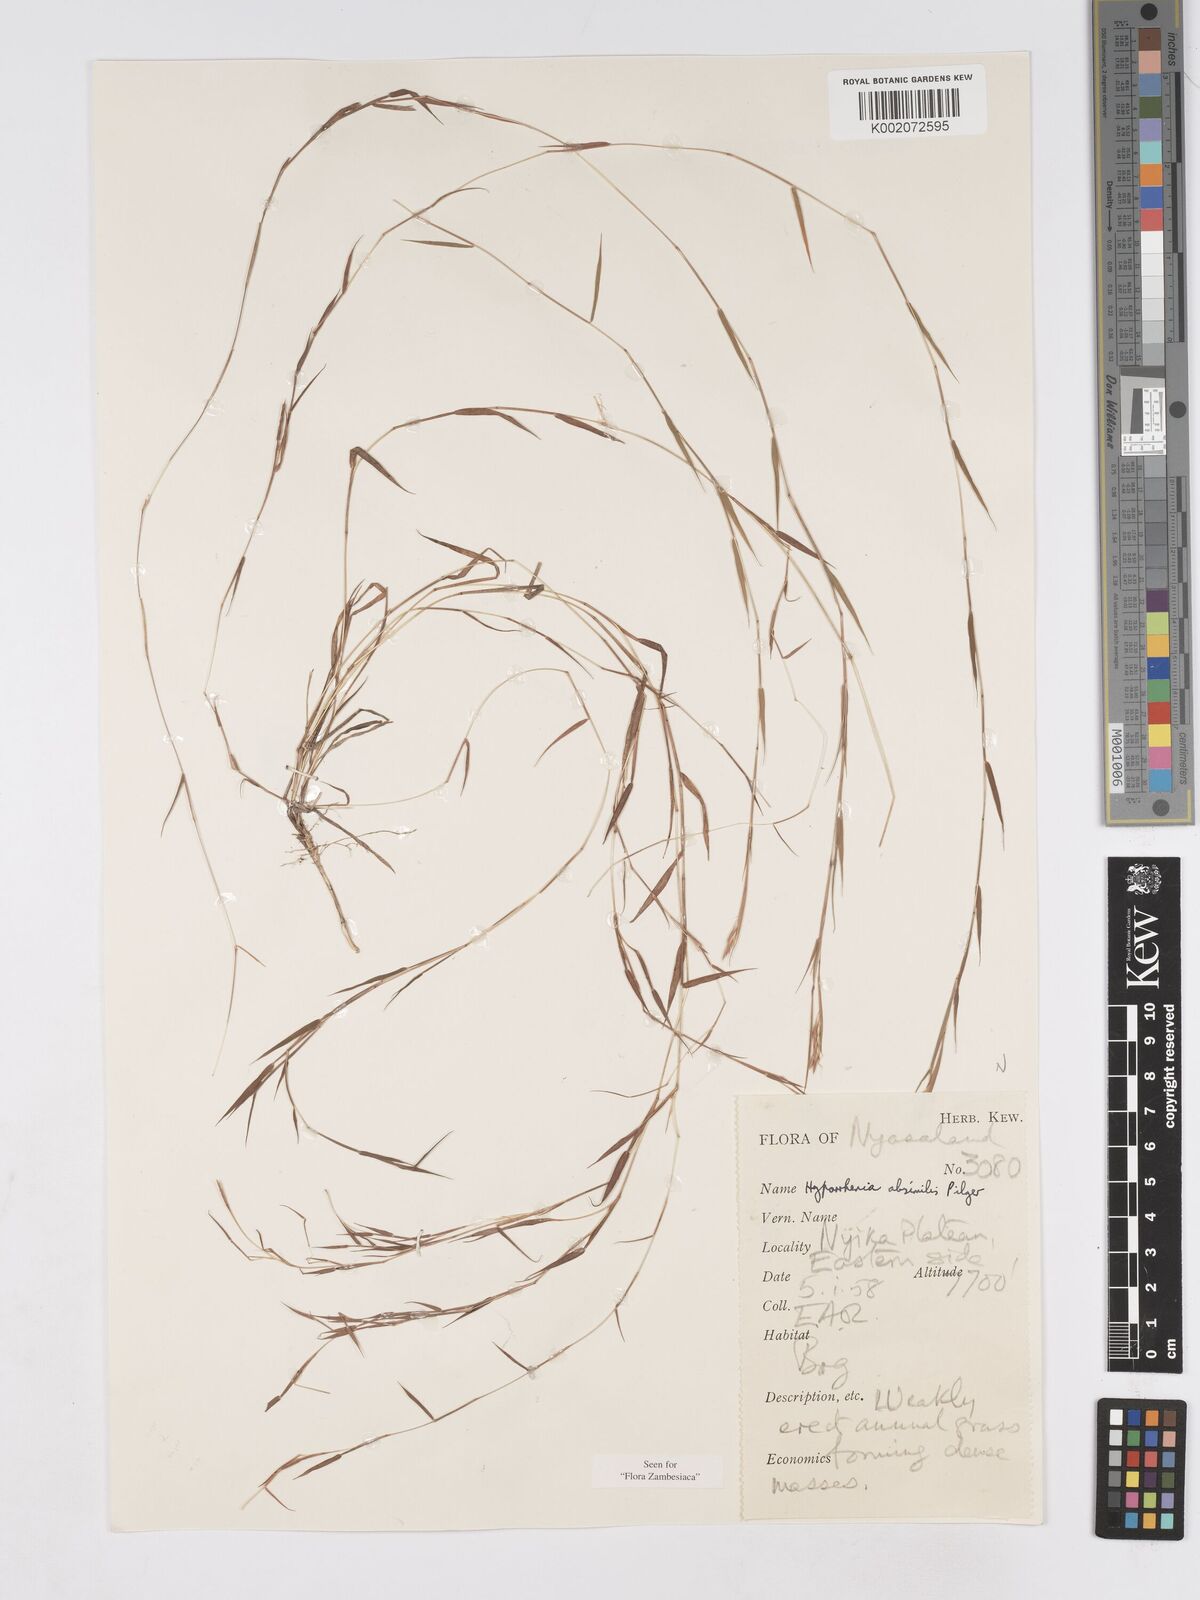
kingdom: Plantae
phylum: Tracheophyta
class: Liliopsida
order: Poales
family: Poaceae
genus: Hyparrhenia
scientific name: Hyparrhenia mobukensis
